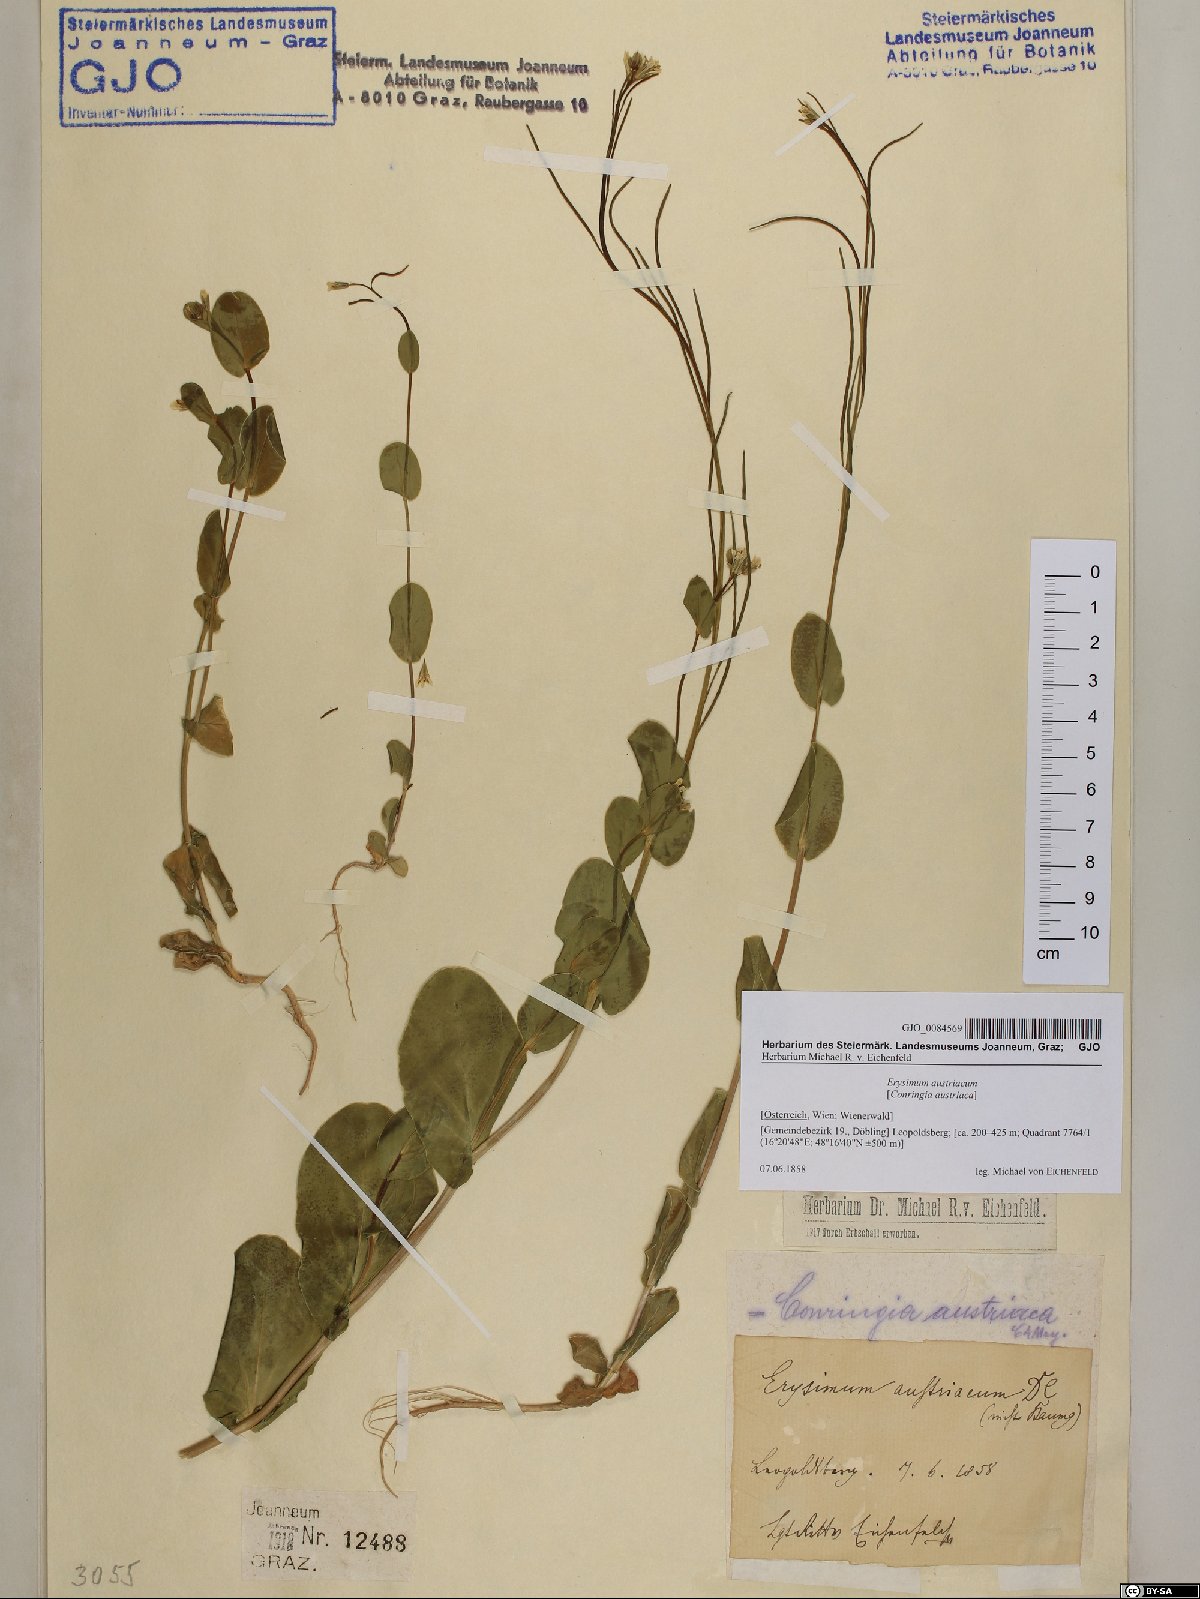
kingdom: Plantae
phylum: Tracheophyta
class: Magnoliopsida
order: Brassicales
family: Brassicaceae
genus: Conringia
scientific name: Conringia austriaca
